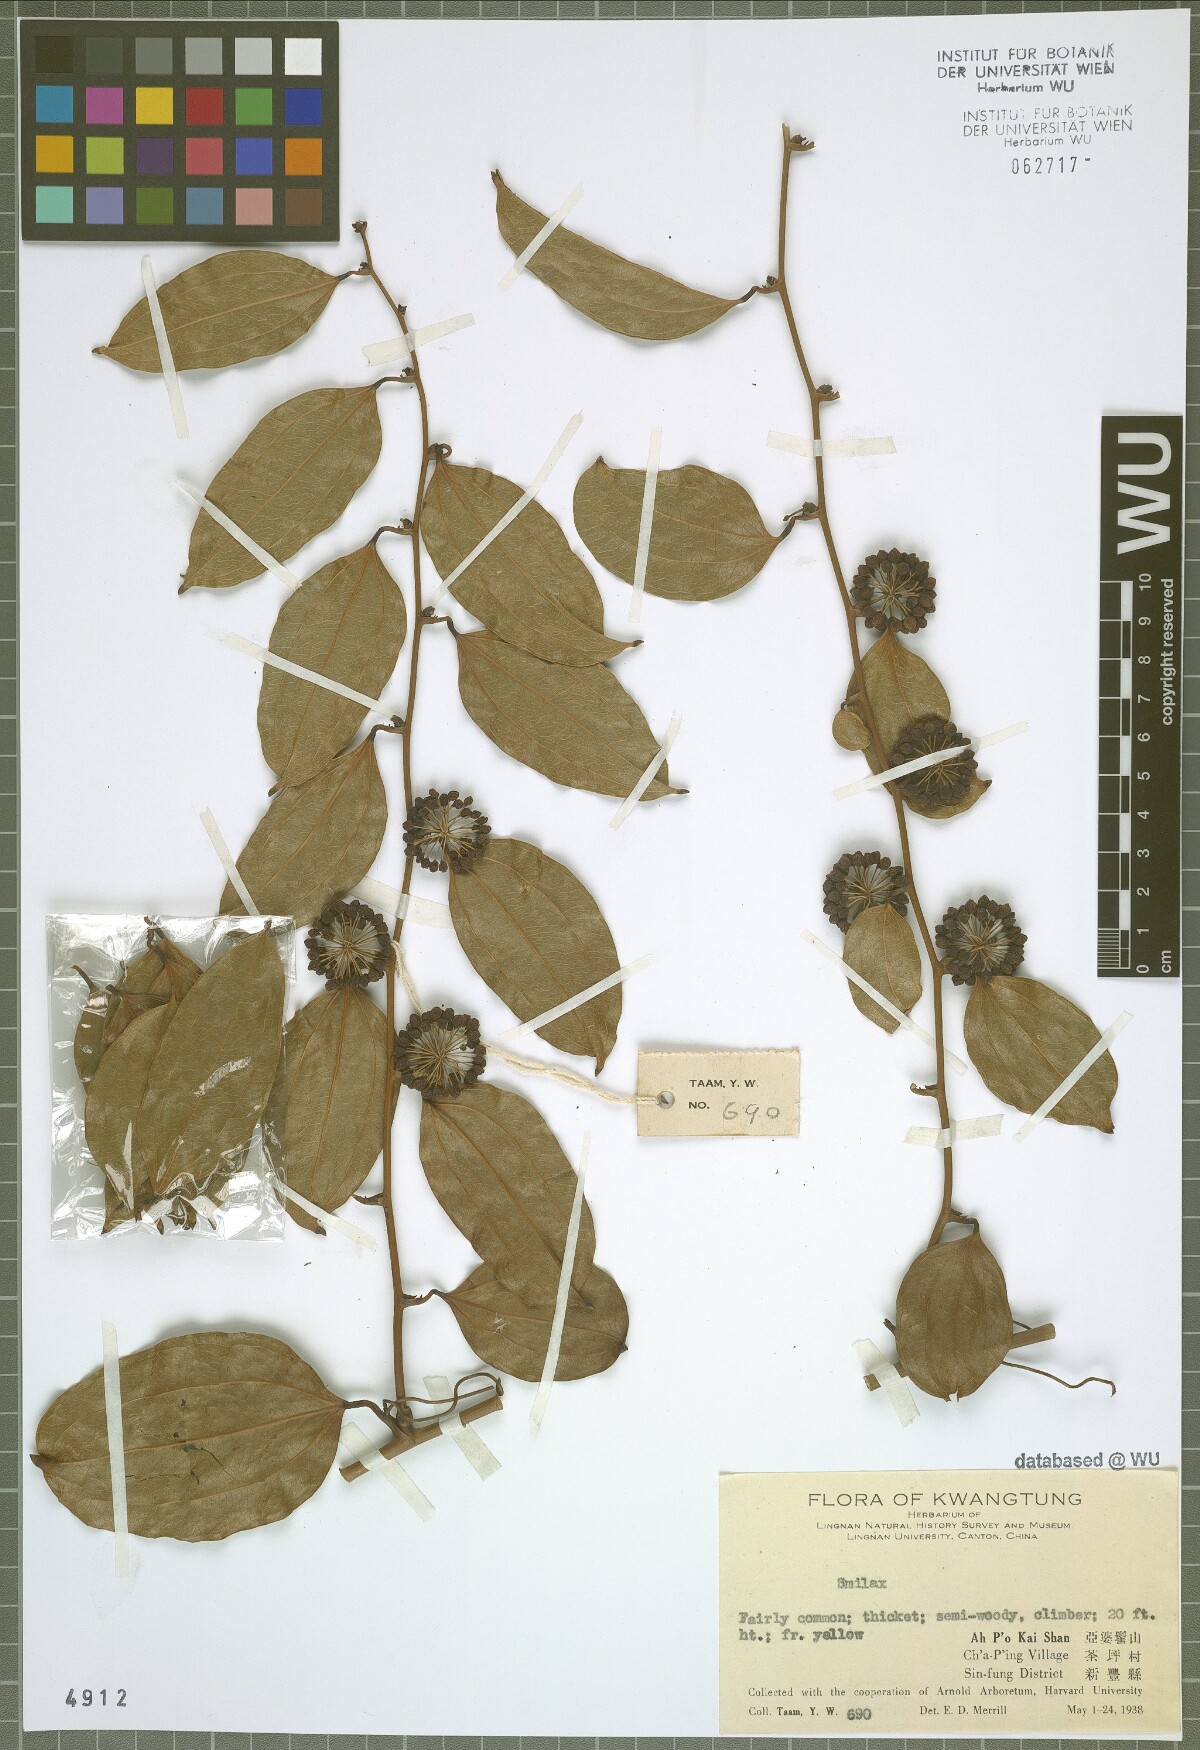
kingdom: Plantae
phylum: Tracheophyta
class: Liliopsida
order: Liliales
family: Smilacaceae
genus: Smilax
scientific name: Smilax
